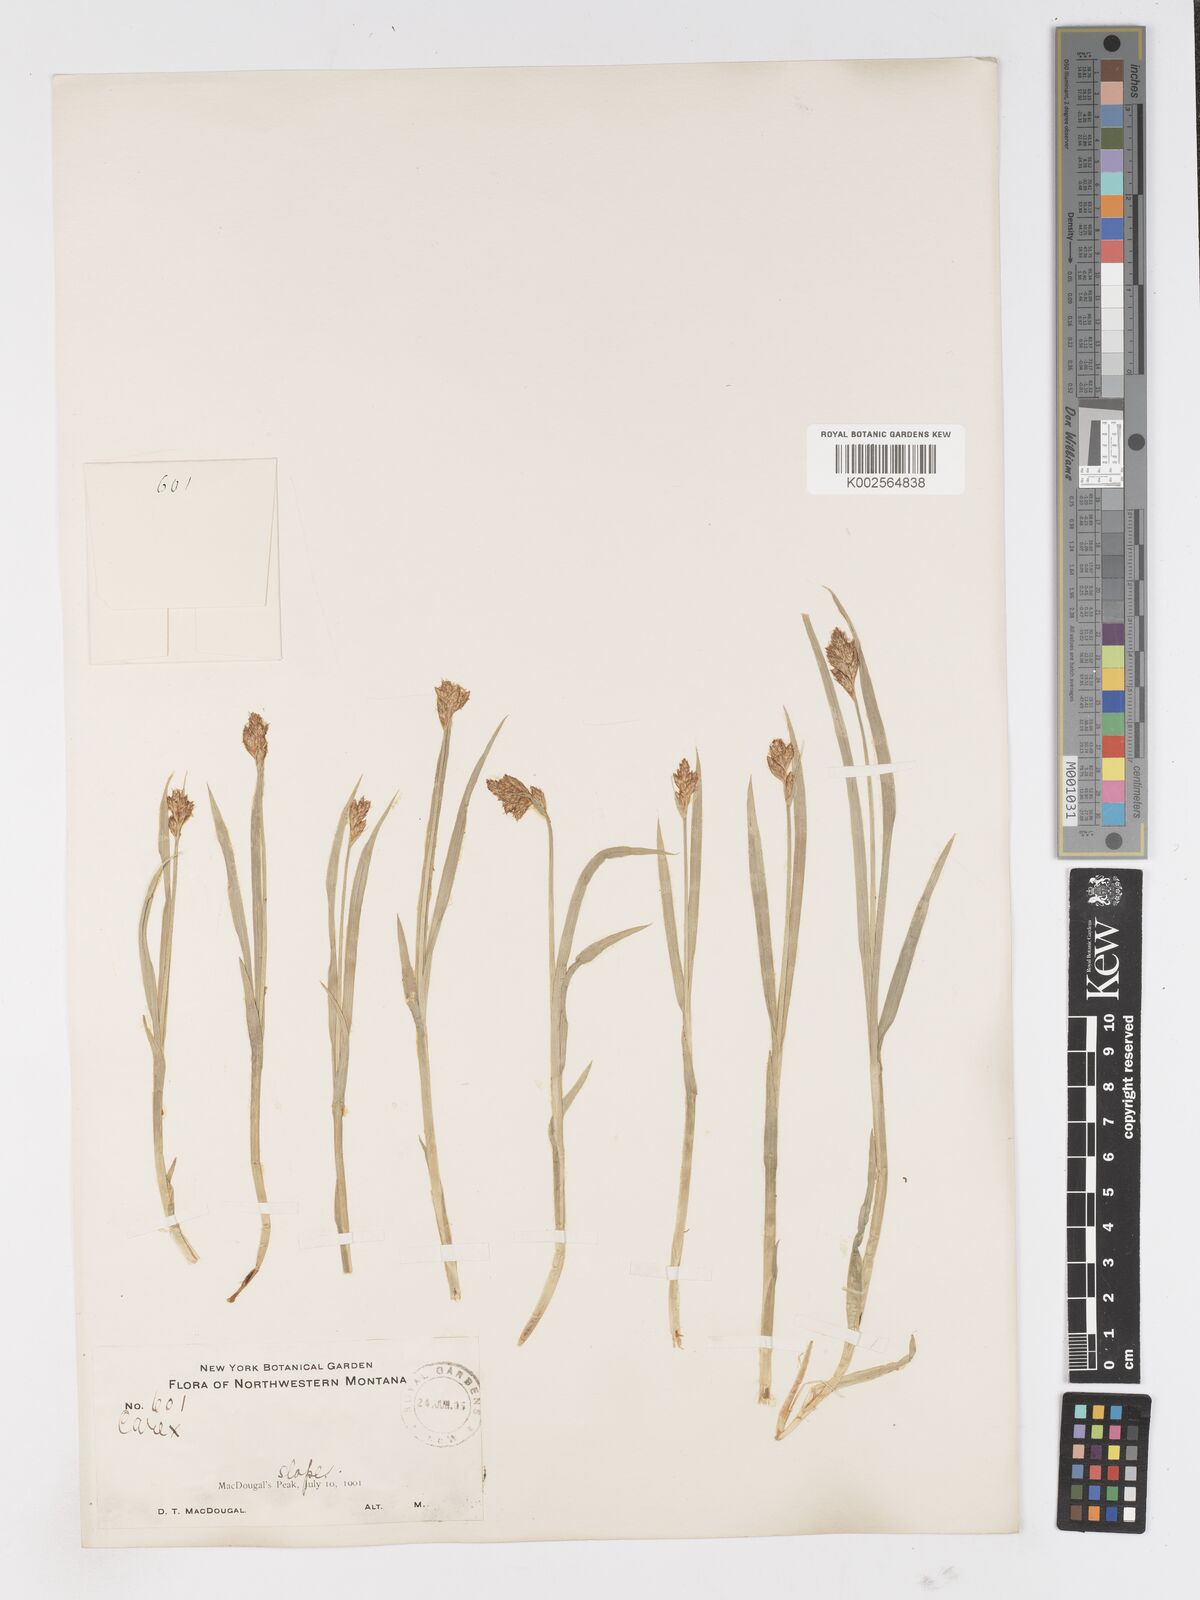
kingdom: Plantae
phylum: Tracheophyta
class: Liliopsida
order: Poales
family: Cyperaceae
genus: Carex
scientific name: Carex
